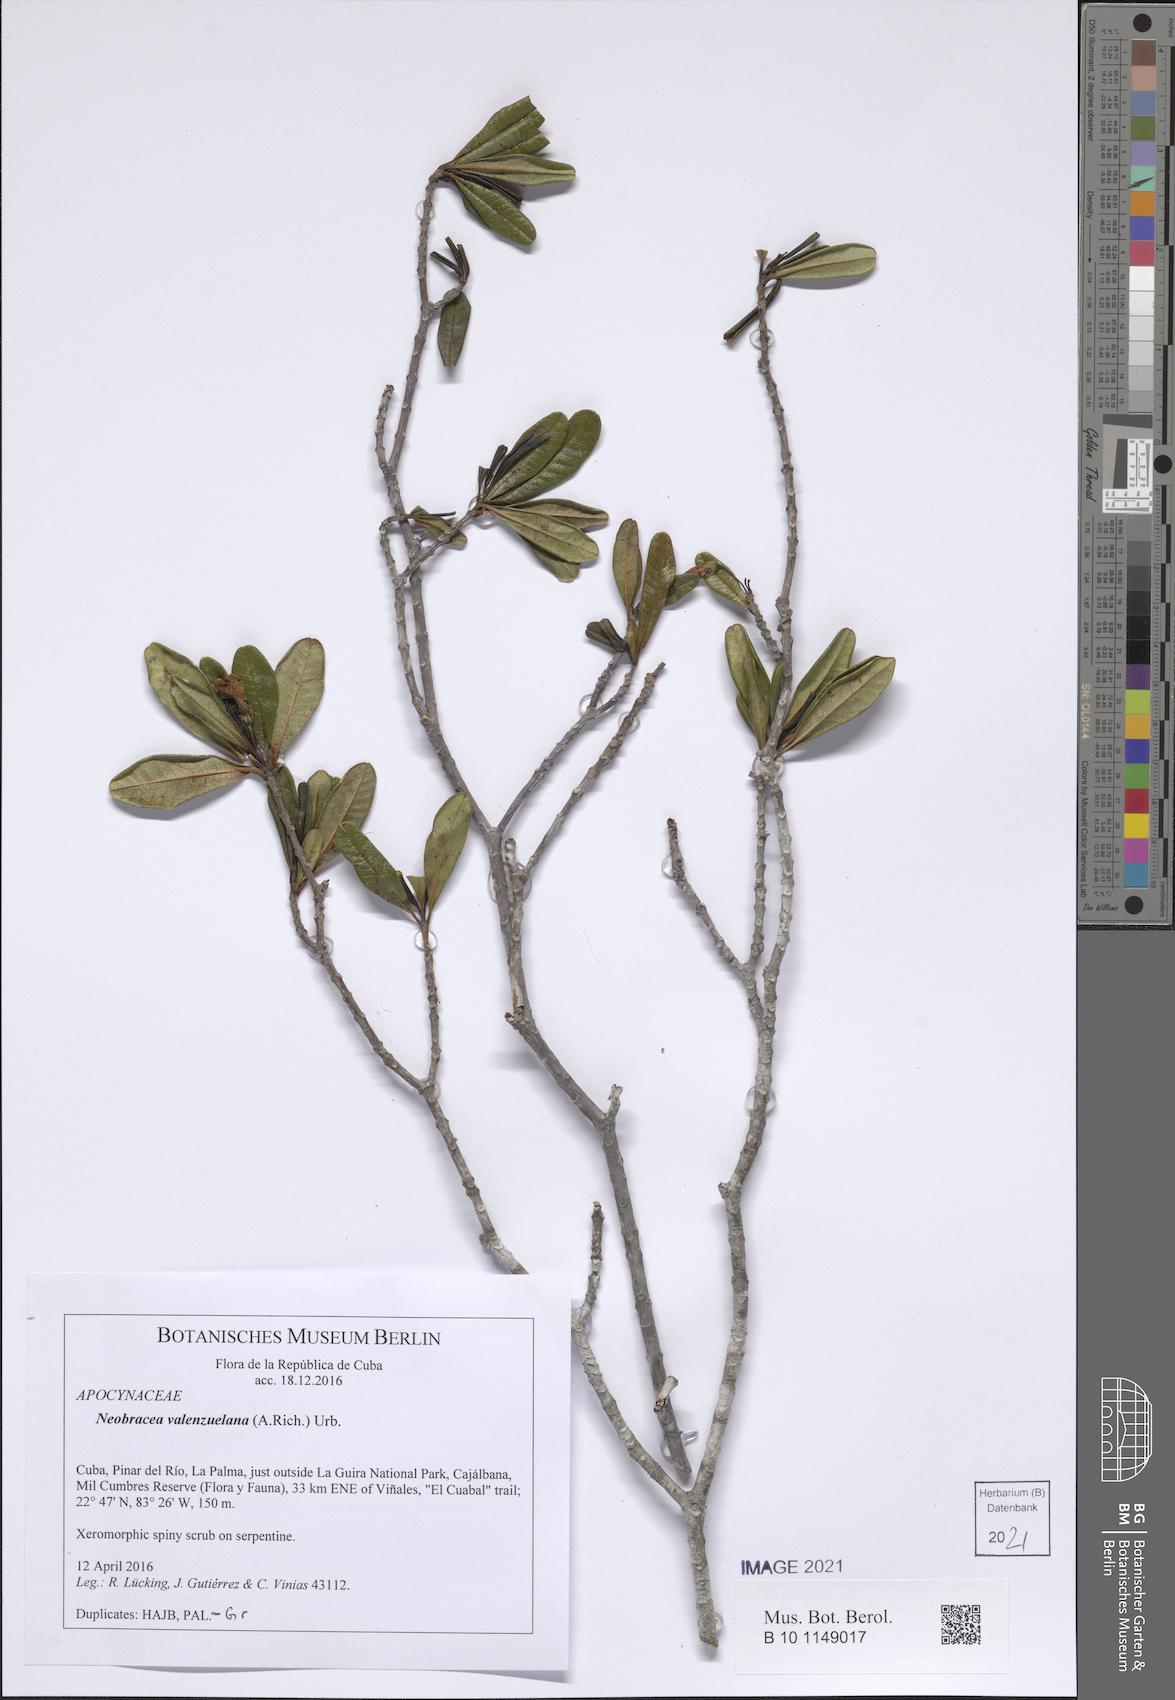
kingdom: Plantae
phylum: Tracheophyta
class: Magnoliopsida
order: Gentianales
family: Apocynaceae
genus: Neobracea
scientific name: Neobracea valenzuelana
